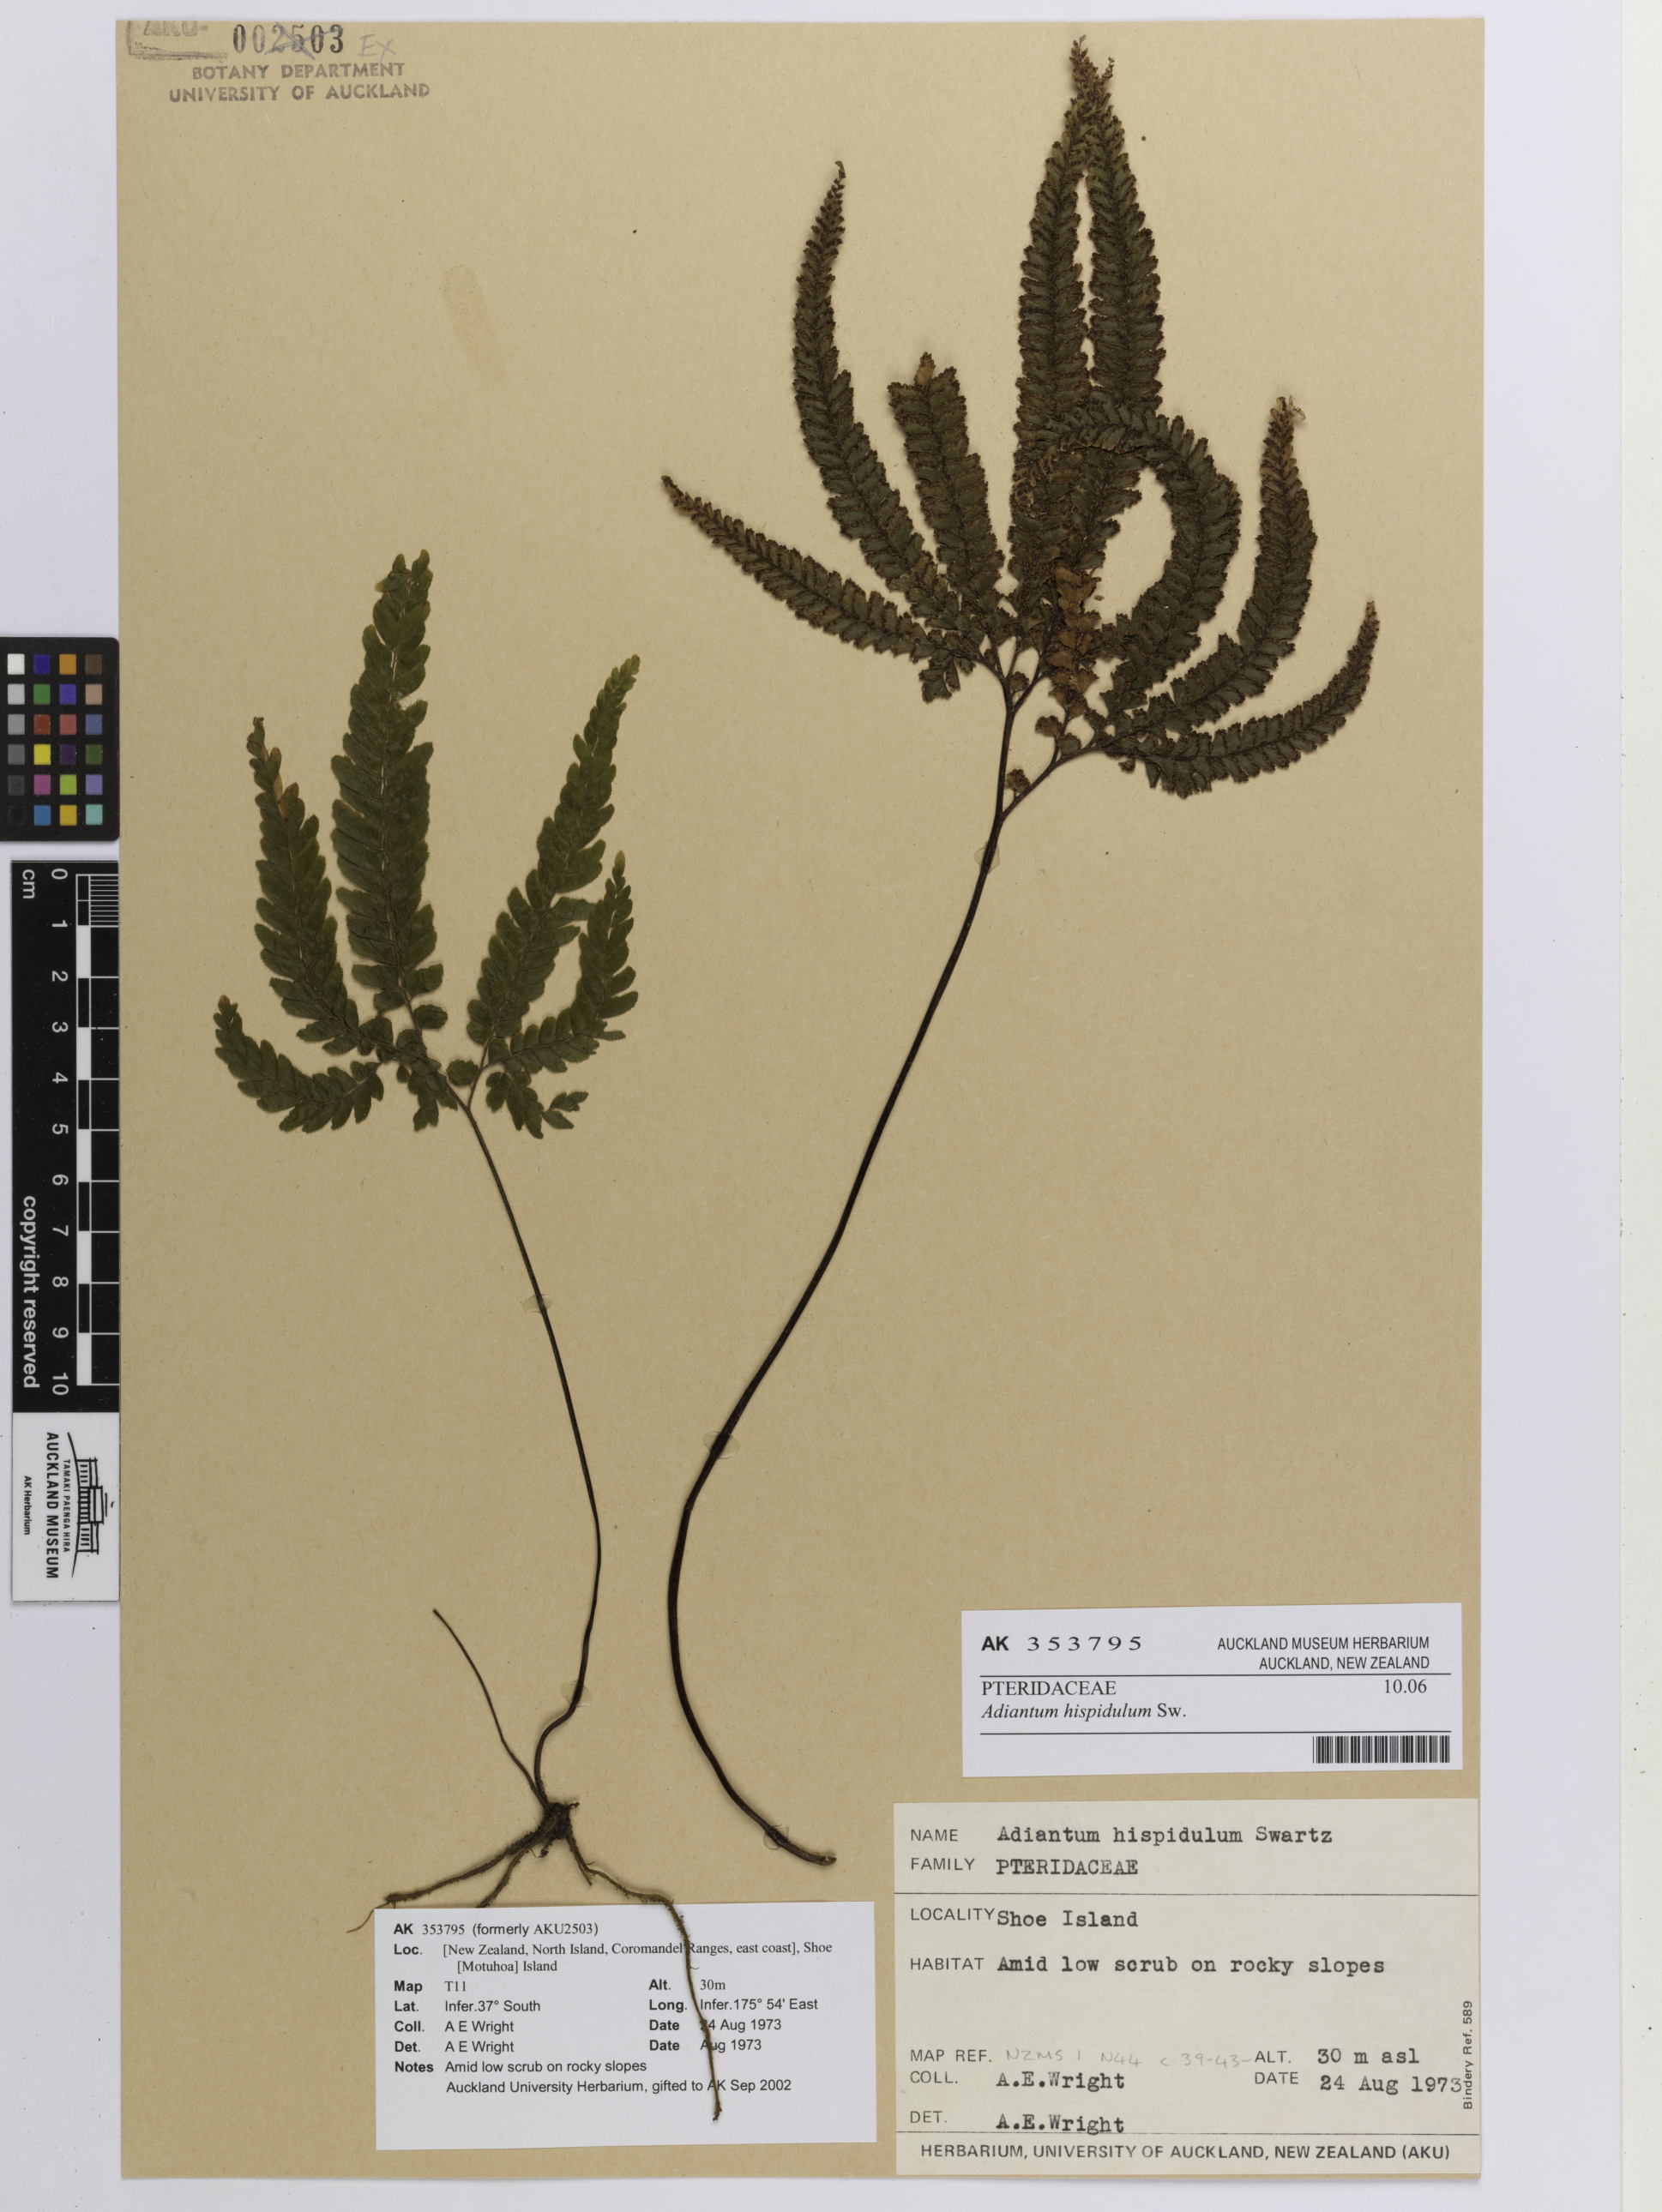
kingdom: Plantae
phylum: Tracheophyta
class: Polypodiopsida
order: Polypodiales
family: Pteridaceae
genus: Adiantum
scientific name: Adiantum hispidulum
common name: Rough maidenhair
